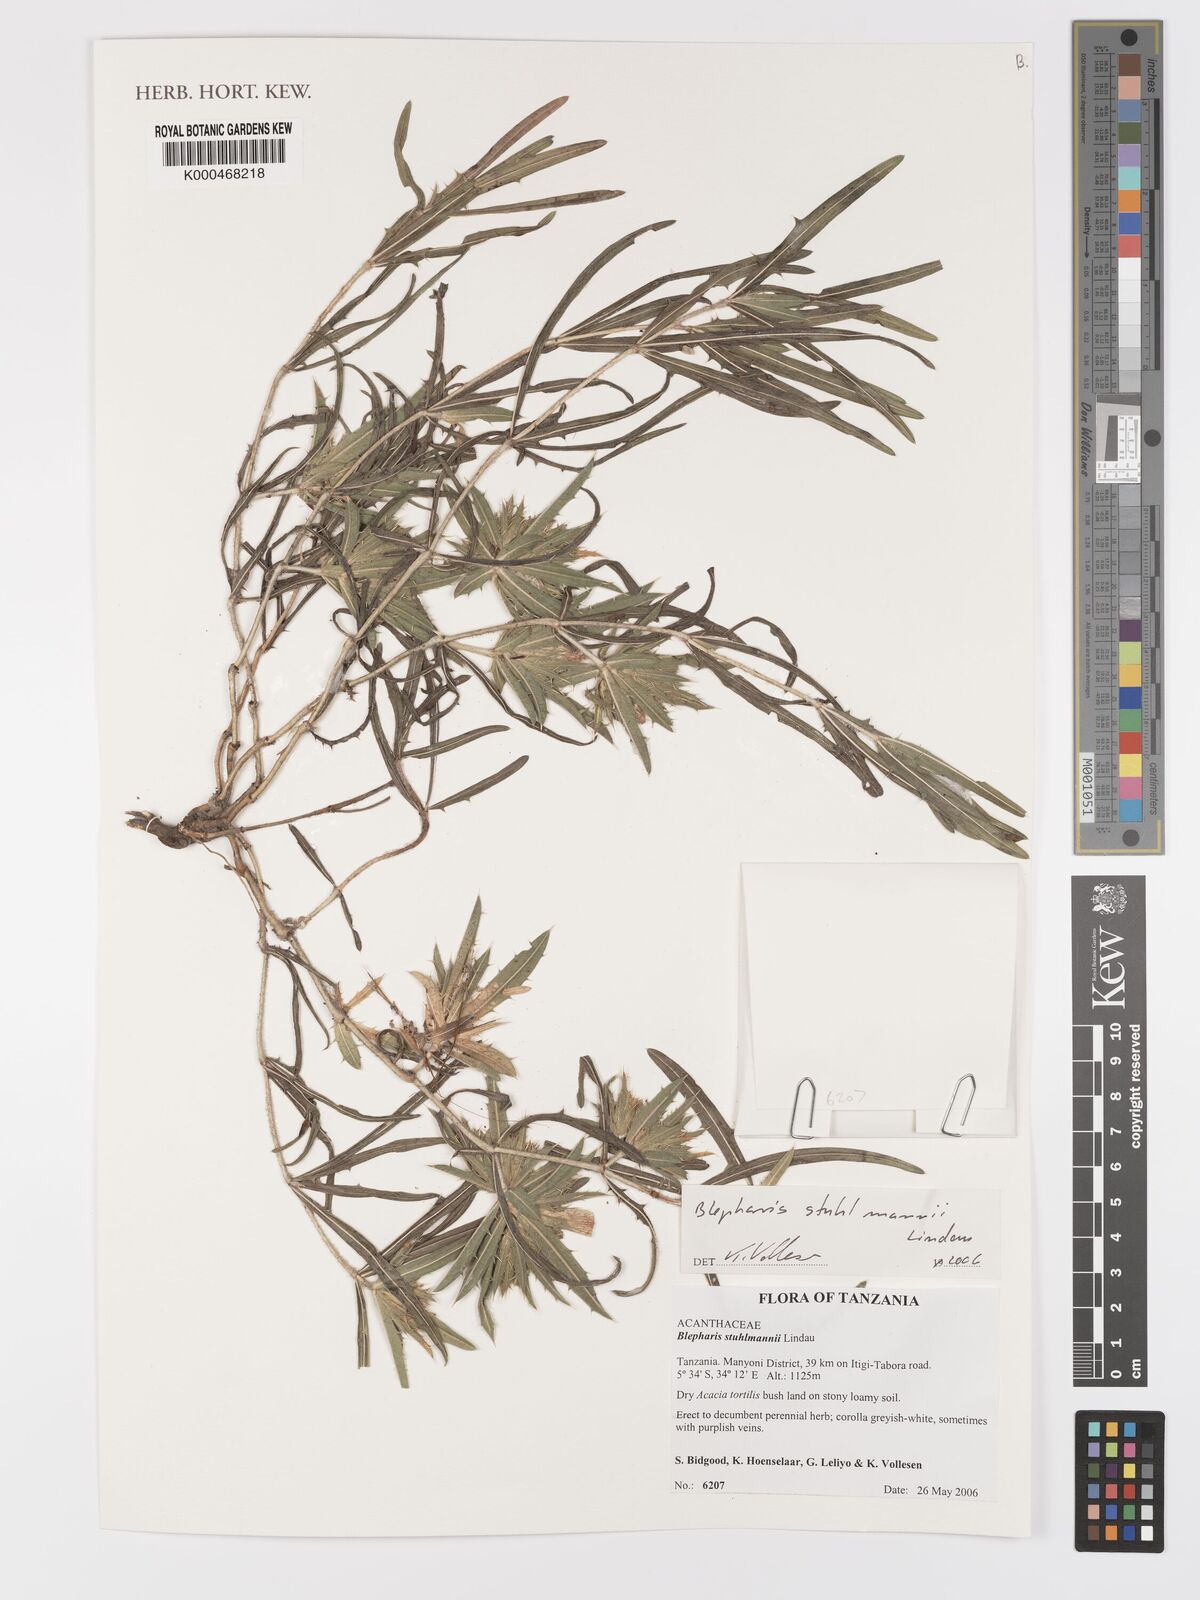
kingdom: Plantae
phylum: Tracheophyta
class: Magnoliopsida
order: Lamiales
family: Acanthaceae
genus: Blepharis
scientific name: Blepharis stuhlmannii
